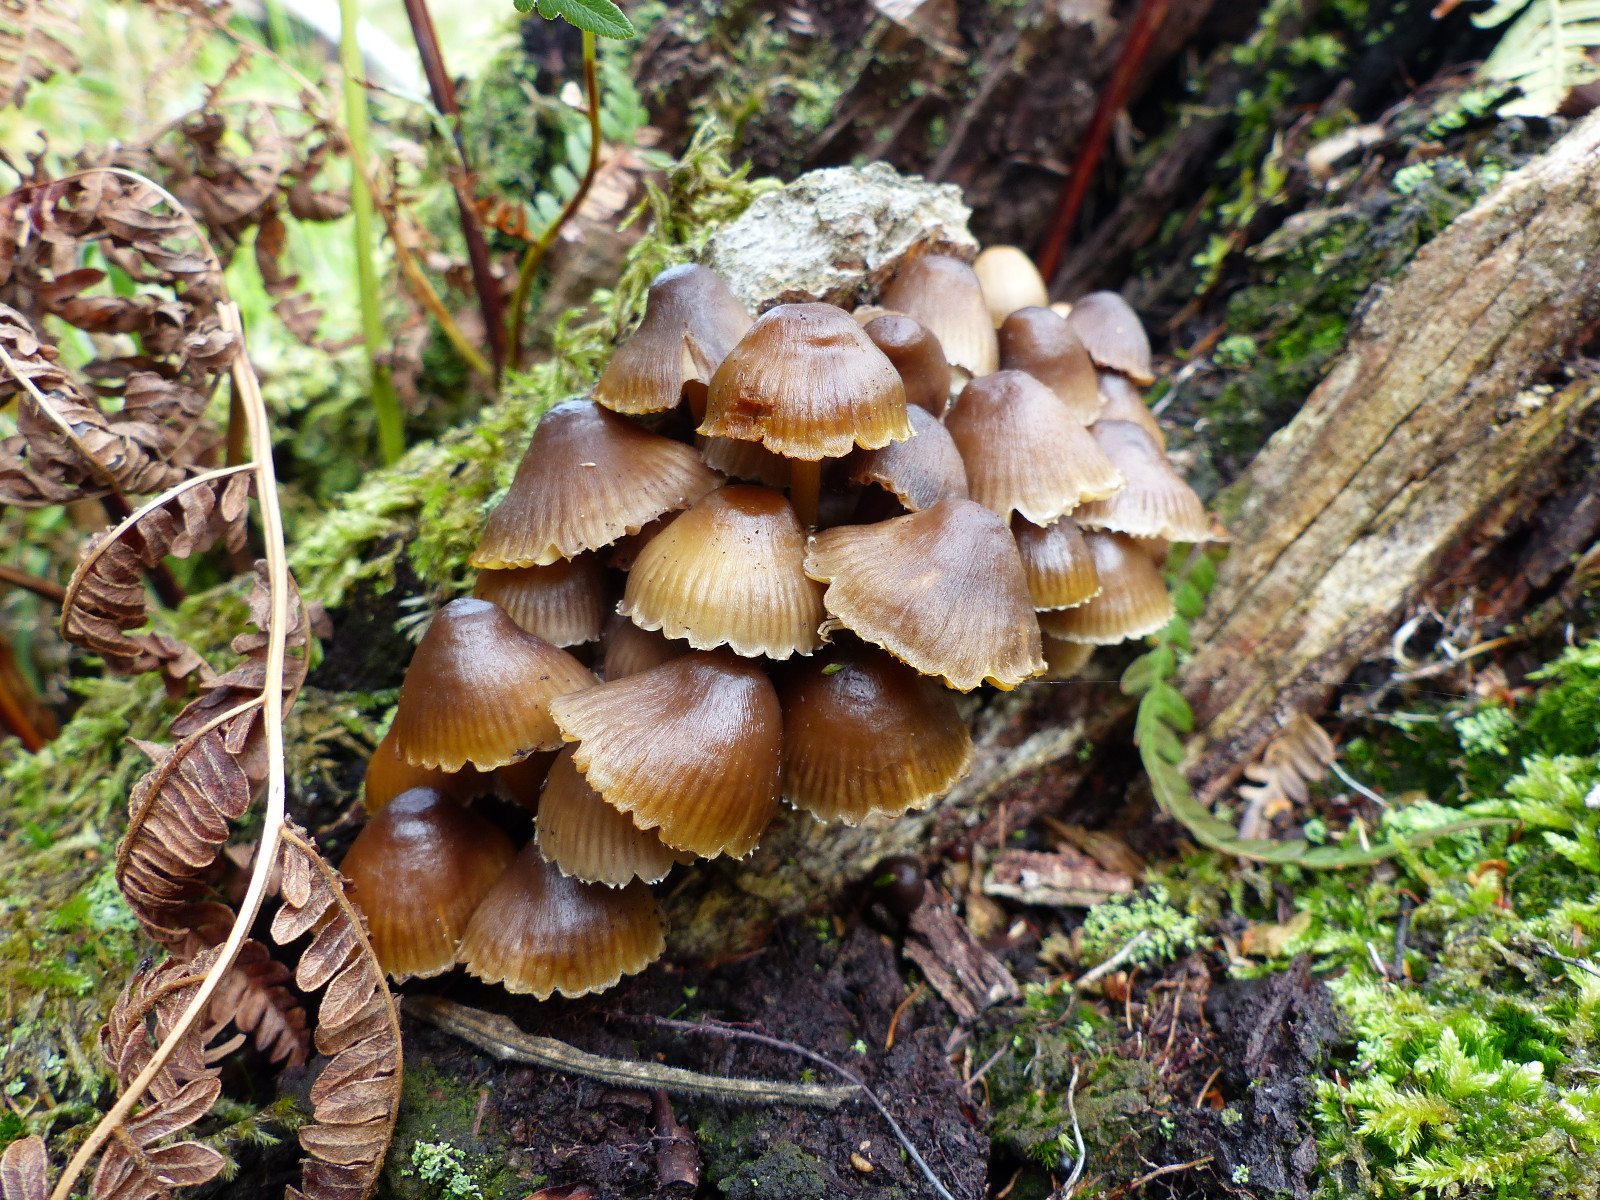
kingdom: Fungi
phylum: Basidiomycota
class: Agaricomycetes
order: Agaricales
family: Mycenaceae
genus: Mycena
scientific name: Mycena inclinata
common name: nikkende huesvamp
